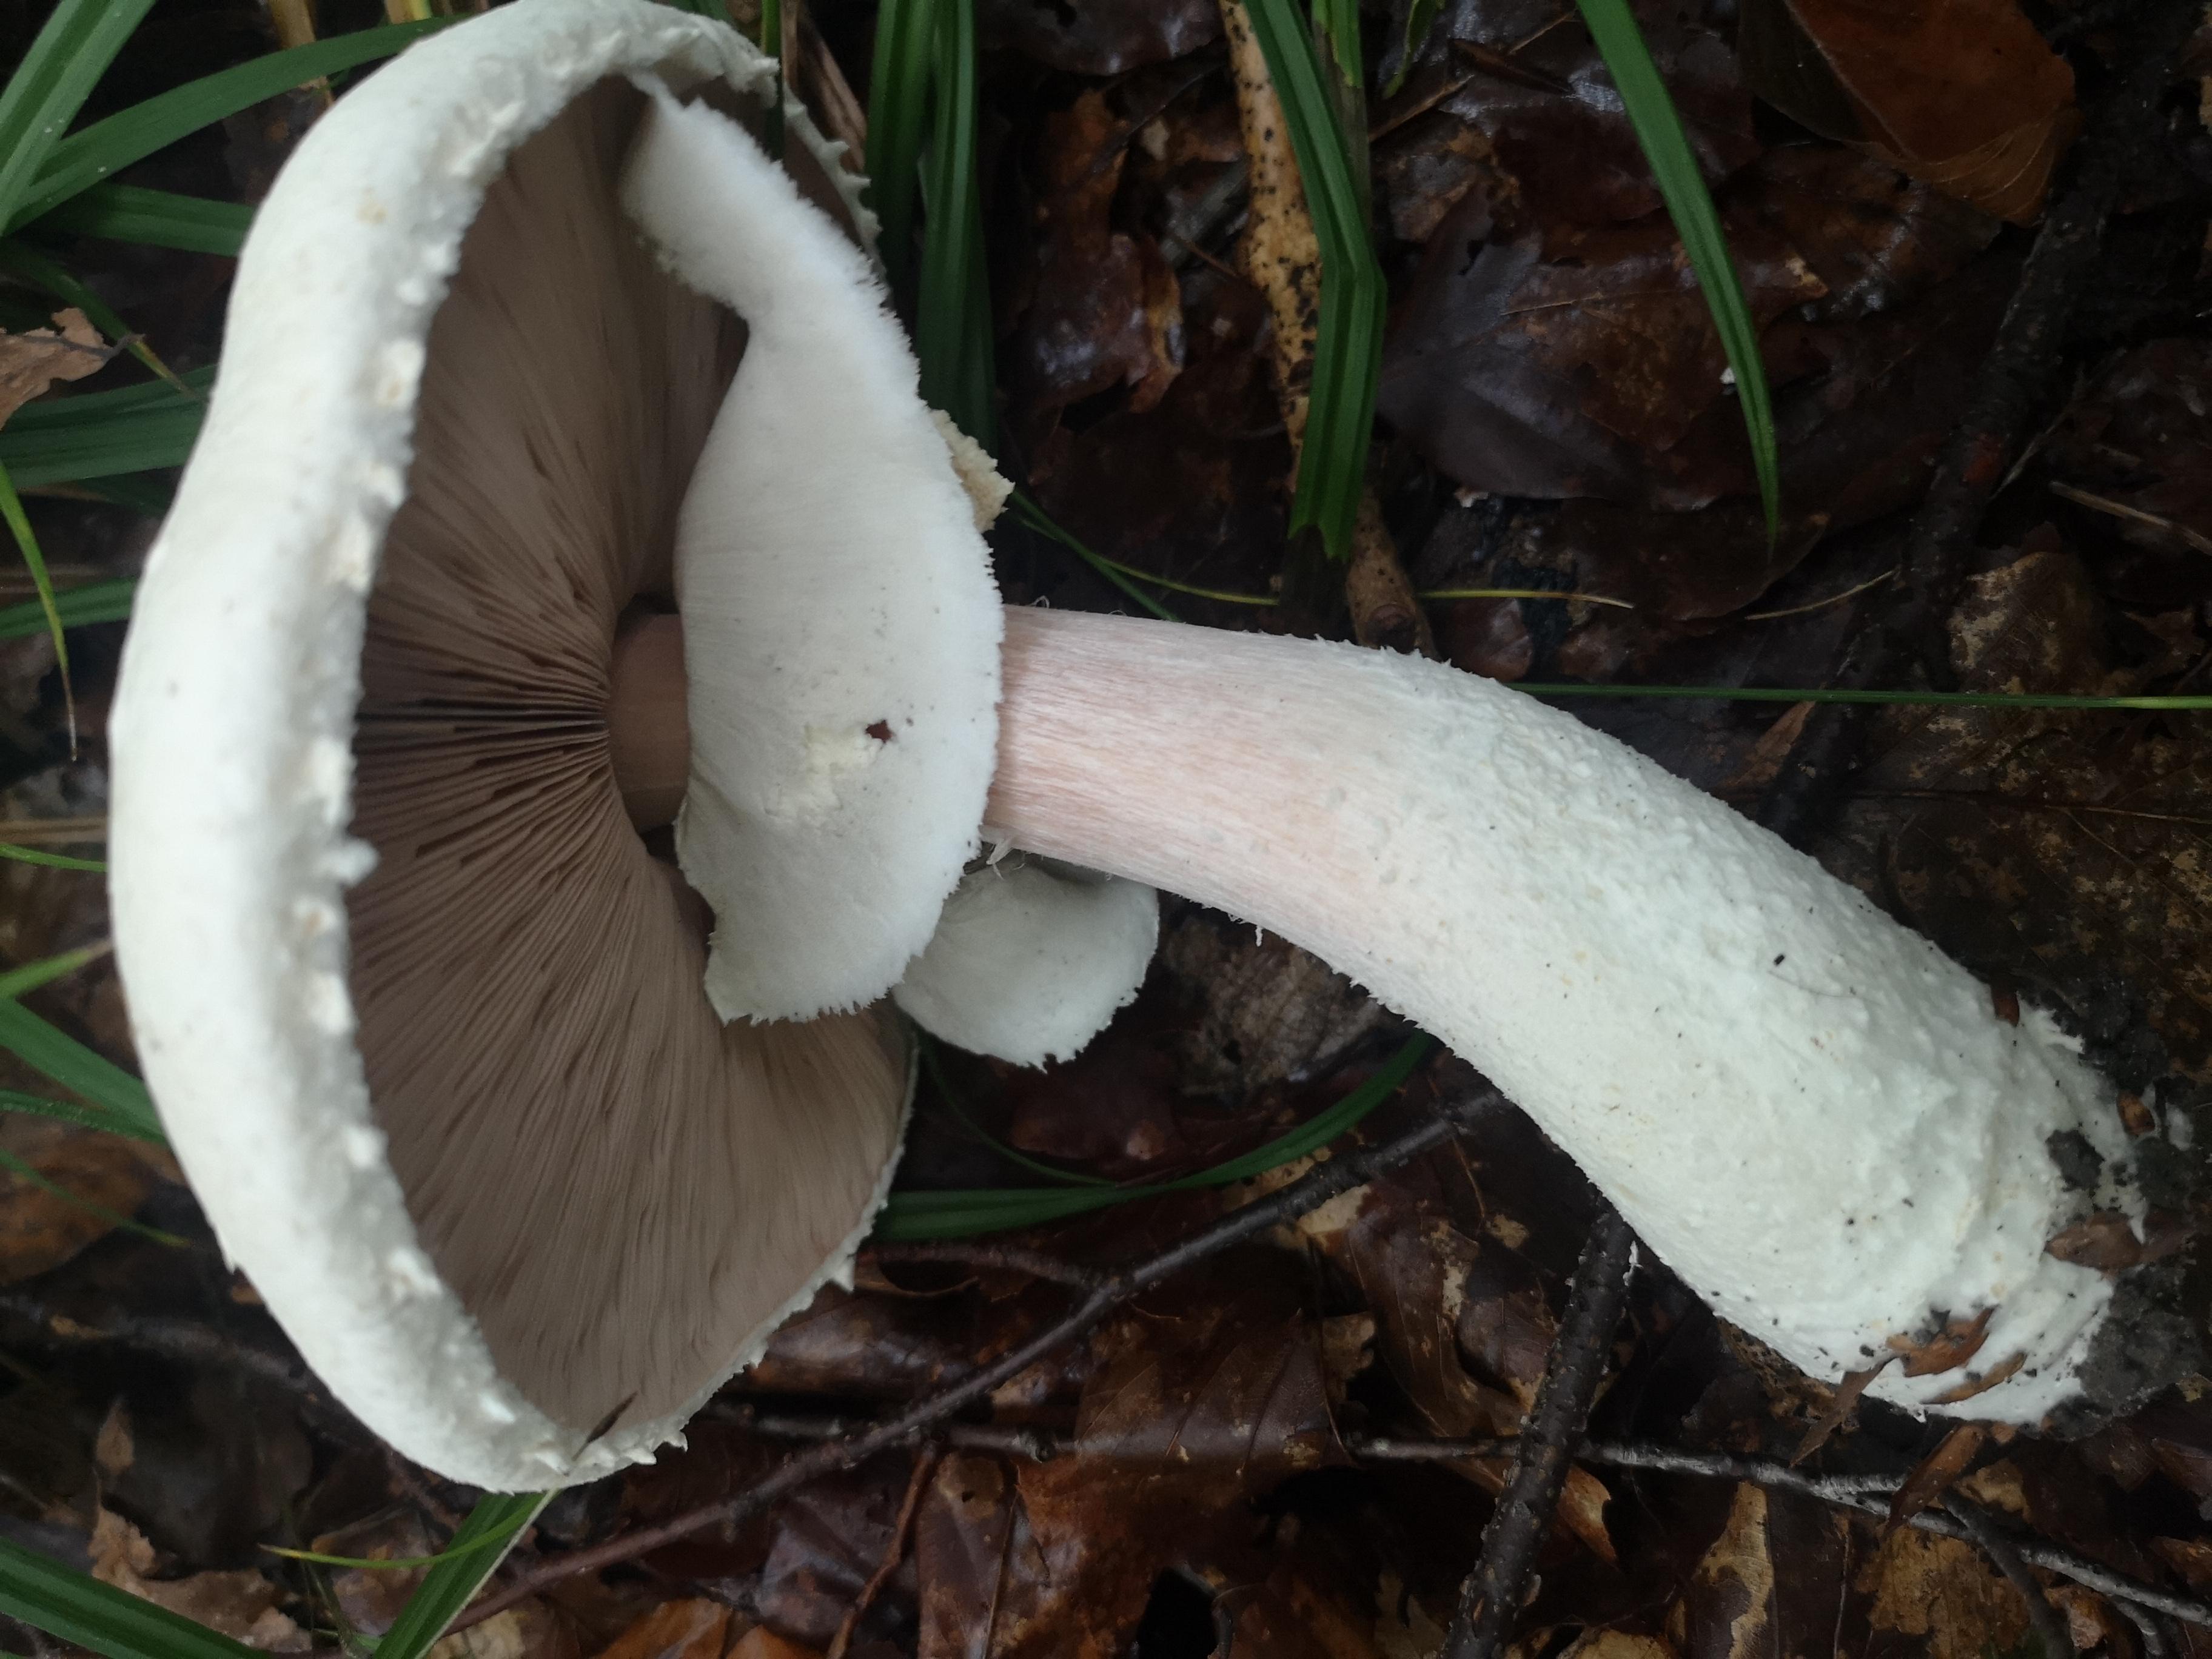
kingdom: Fungi
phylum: Basidiomycota
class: Agaricomycetes
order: Agaricales
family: Agaricaceae
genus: Agaricus
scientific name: Agaricus
